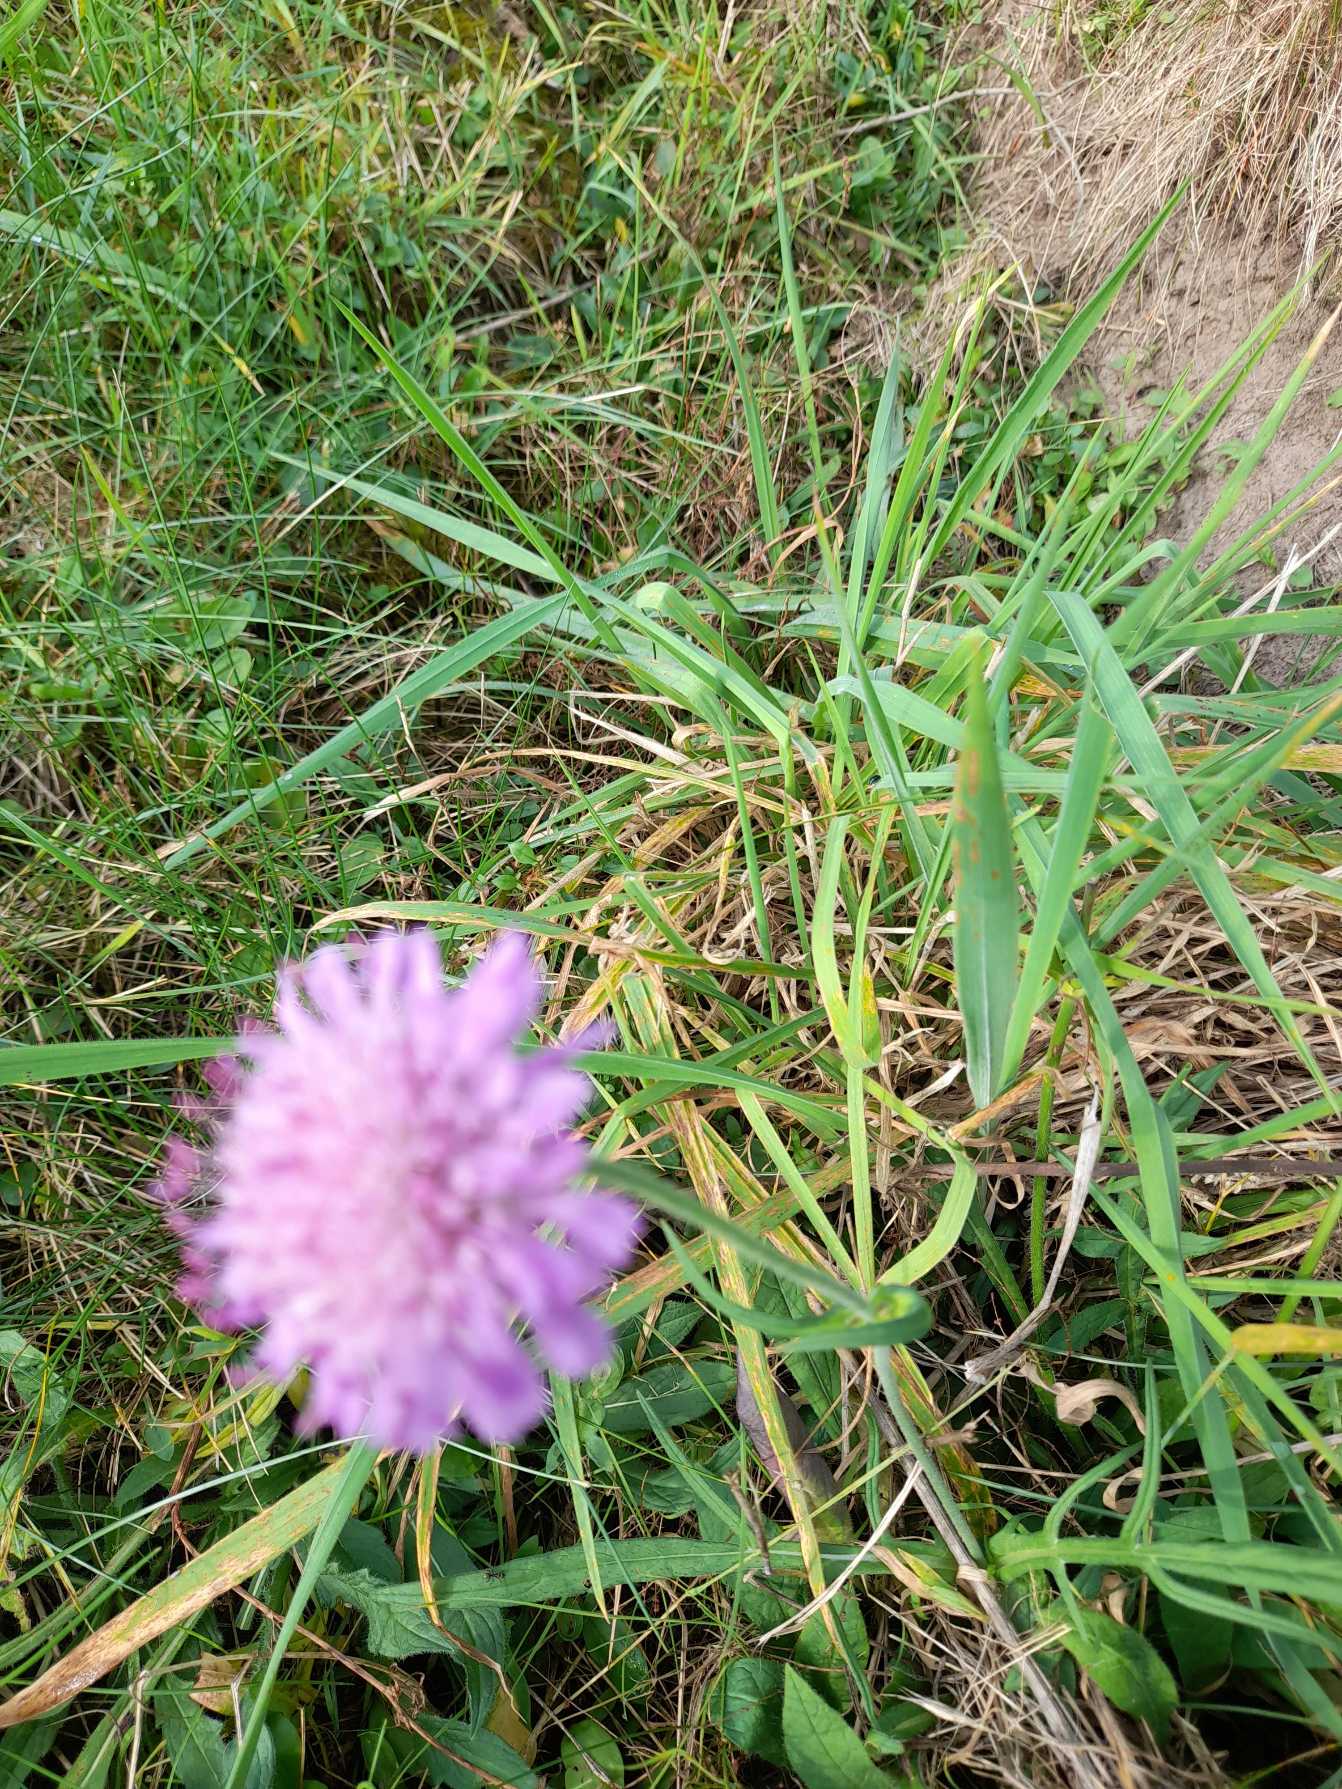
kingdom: Plantae
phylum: Tracheophyta
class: Magnoliopsida
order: Dipsacales
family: Caprifoliaceae
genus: Knautia
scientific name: Knautia arvensis
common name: Blåhat
